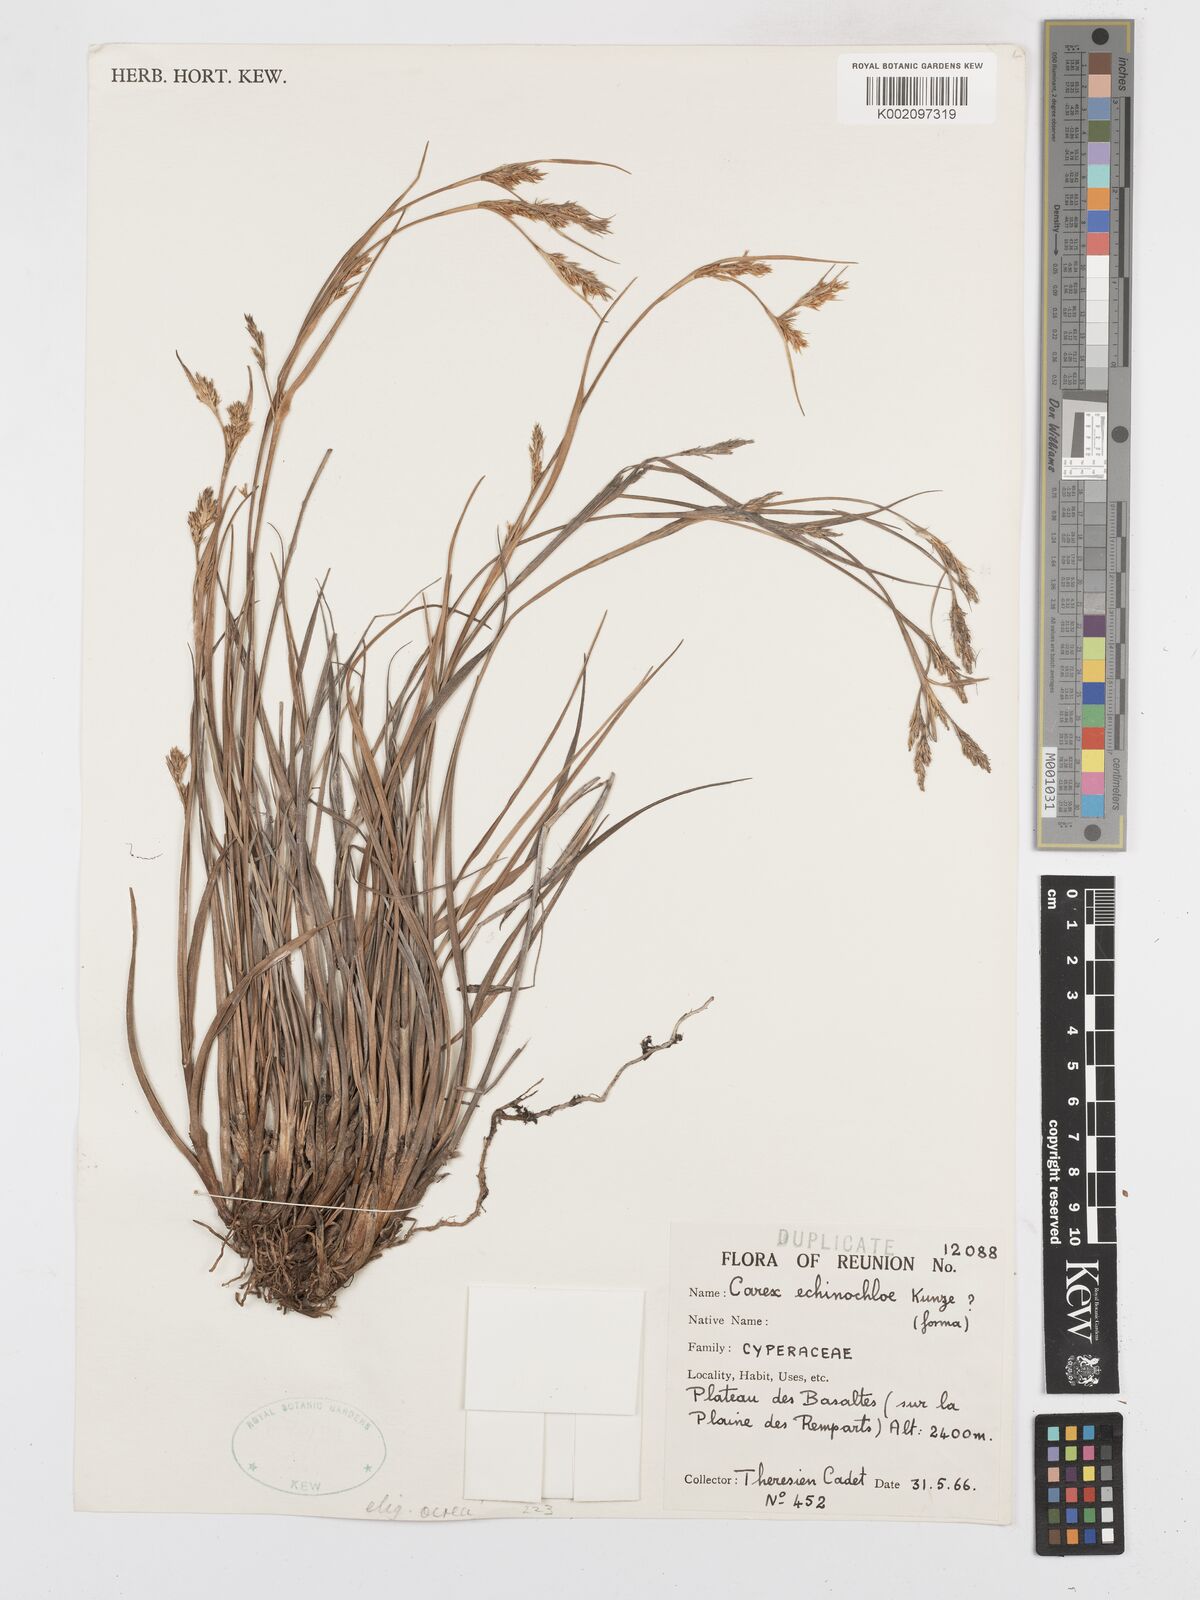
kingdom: Plantae
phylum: Tracheophyta
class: Liliopsida
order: Poales
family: Cyperaceae
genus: Carex
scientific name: Carex echinochloe
